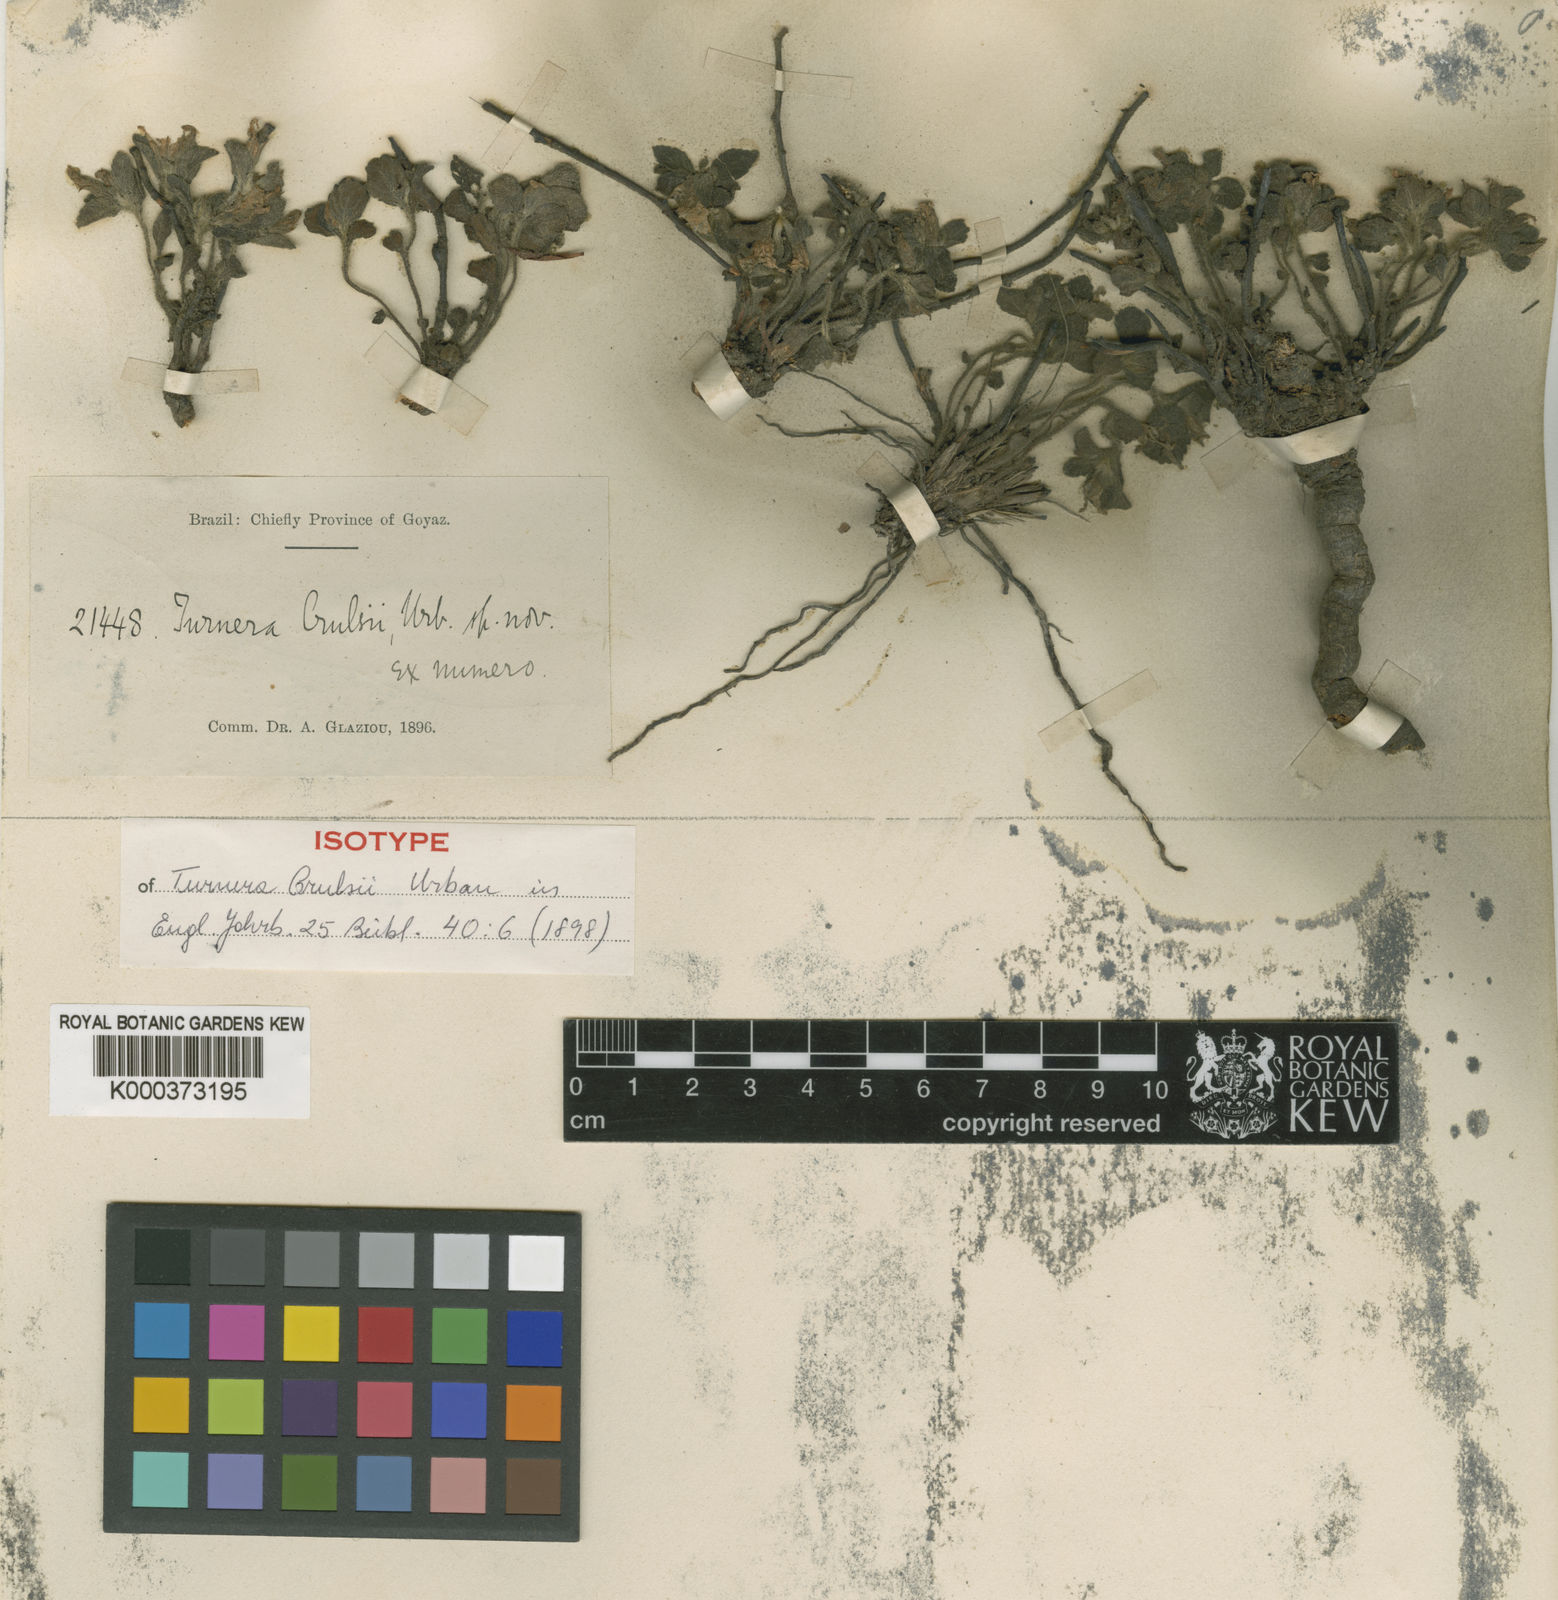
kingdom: Plantae
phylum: Tracheophyta
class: Magnoliopsida
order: Malpighiales
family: Turneraceae
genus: Turnera
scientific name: Turnera crulsii
